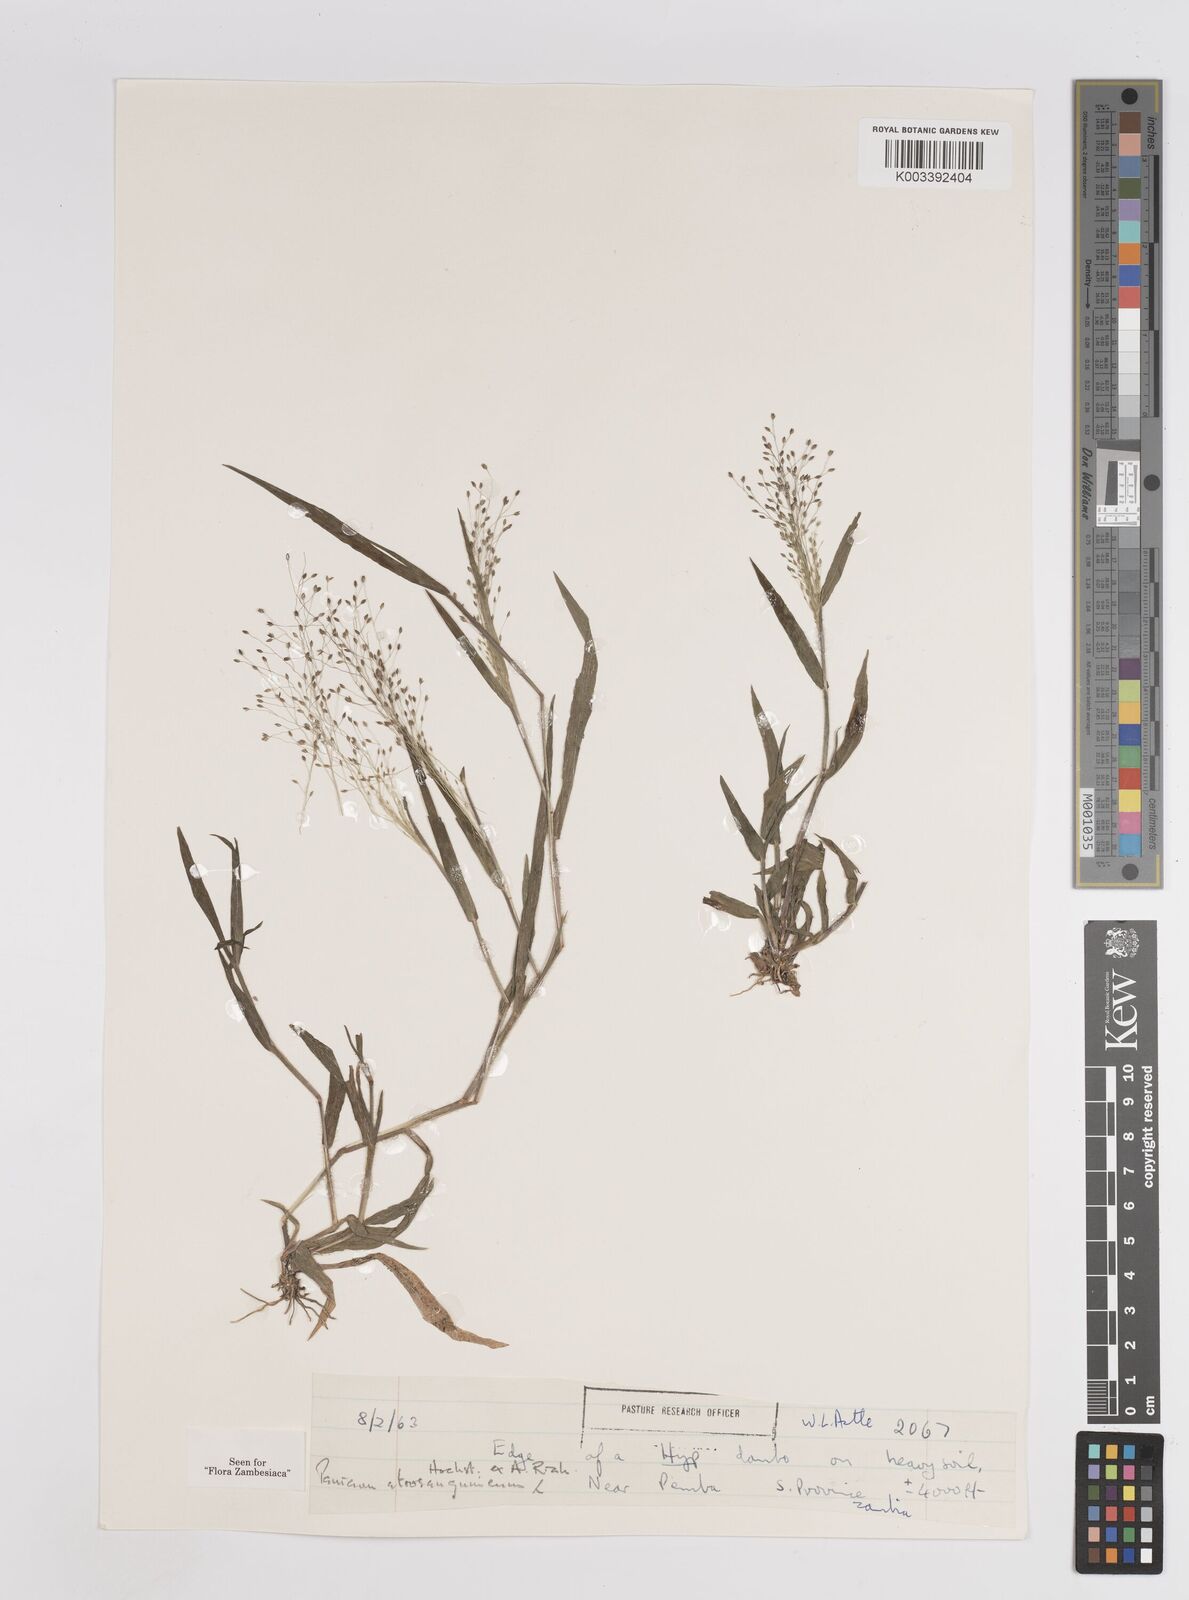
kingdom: Plantae
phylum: Tracheophyta
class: Liliopsida
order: Poales
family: Poaceae
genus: Panicum
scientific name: Panicum atrosanguineum
